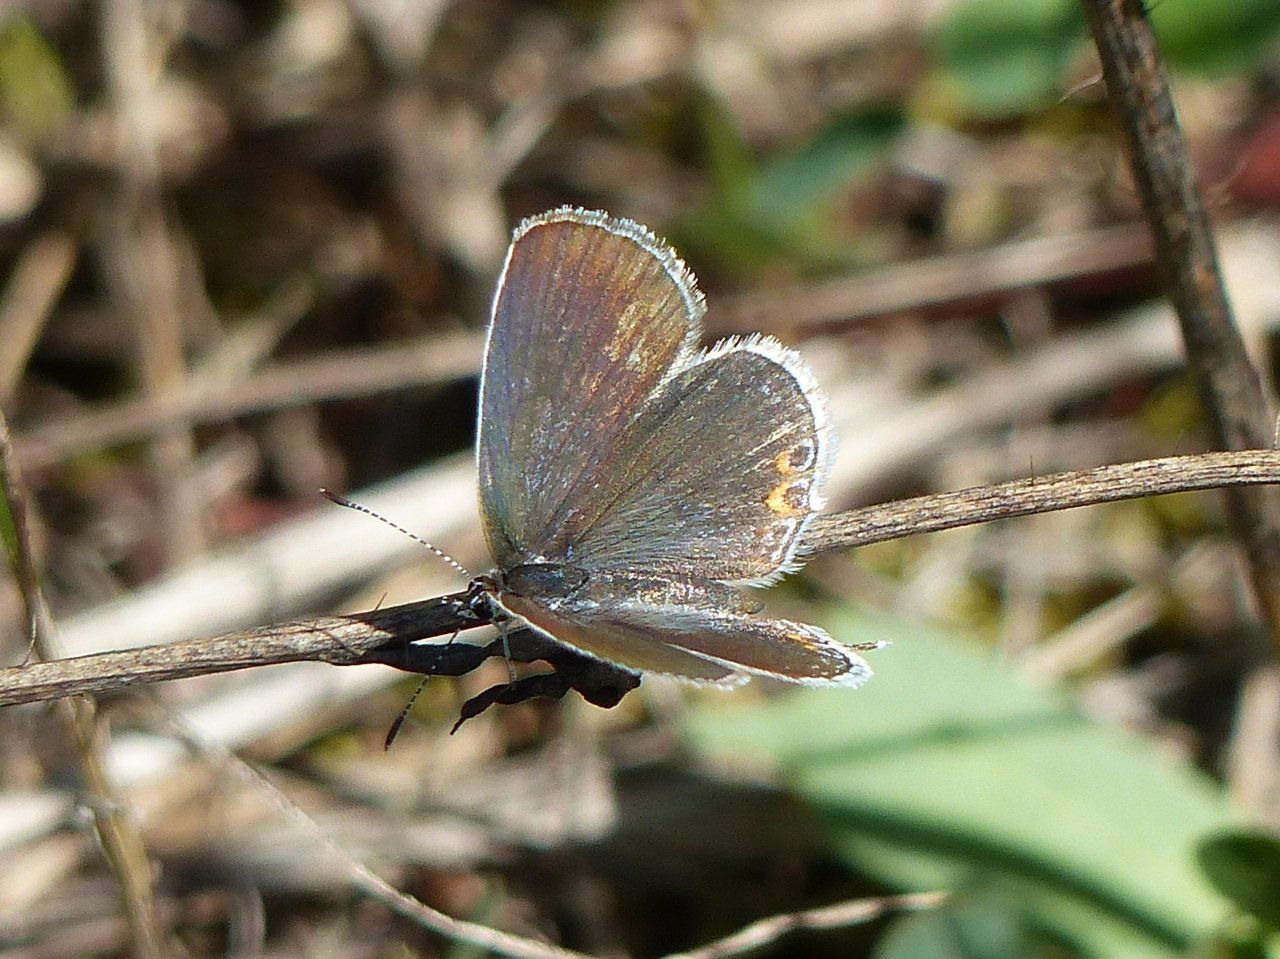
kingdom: Animalia
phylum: Arthropoda
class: Insecta
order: Lepidoptera
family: Lycaenidae
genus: Elkalyce
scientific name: Elkalyce comyntas
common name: Eastern Tailed-Blue
